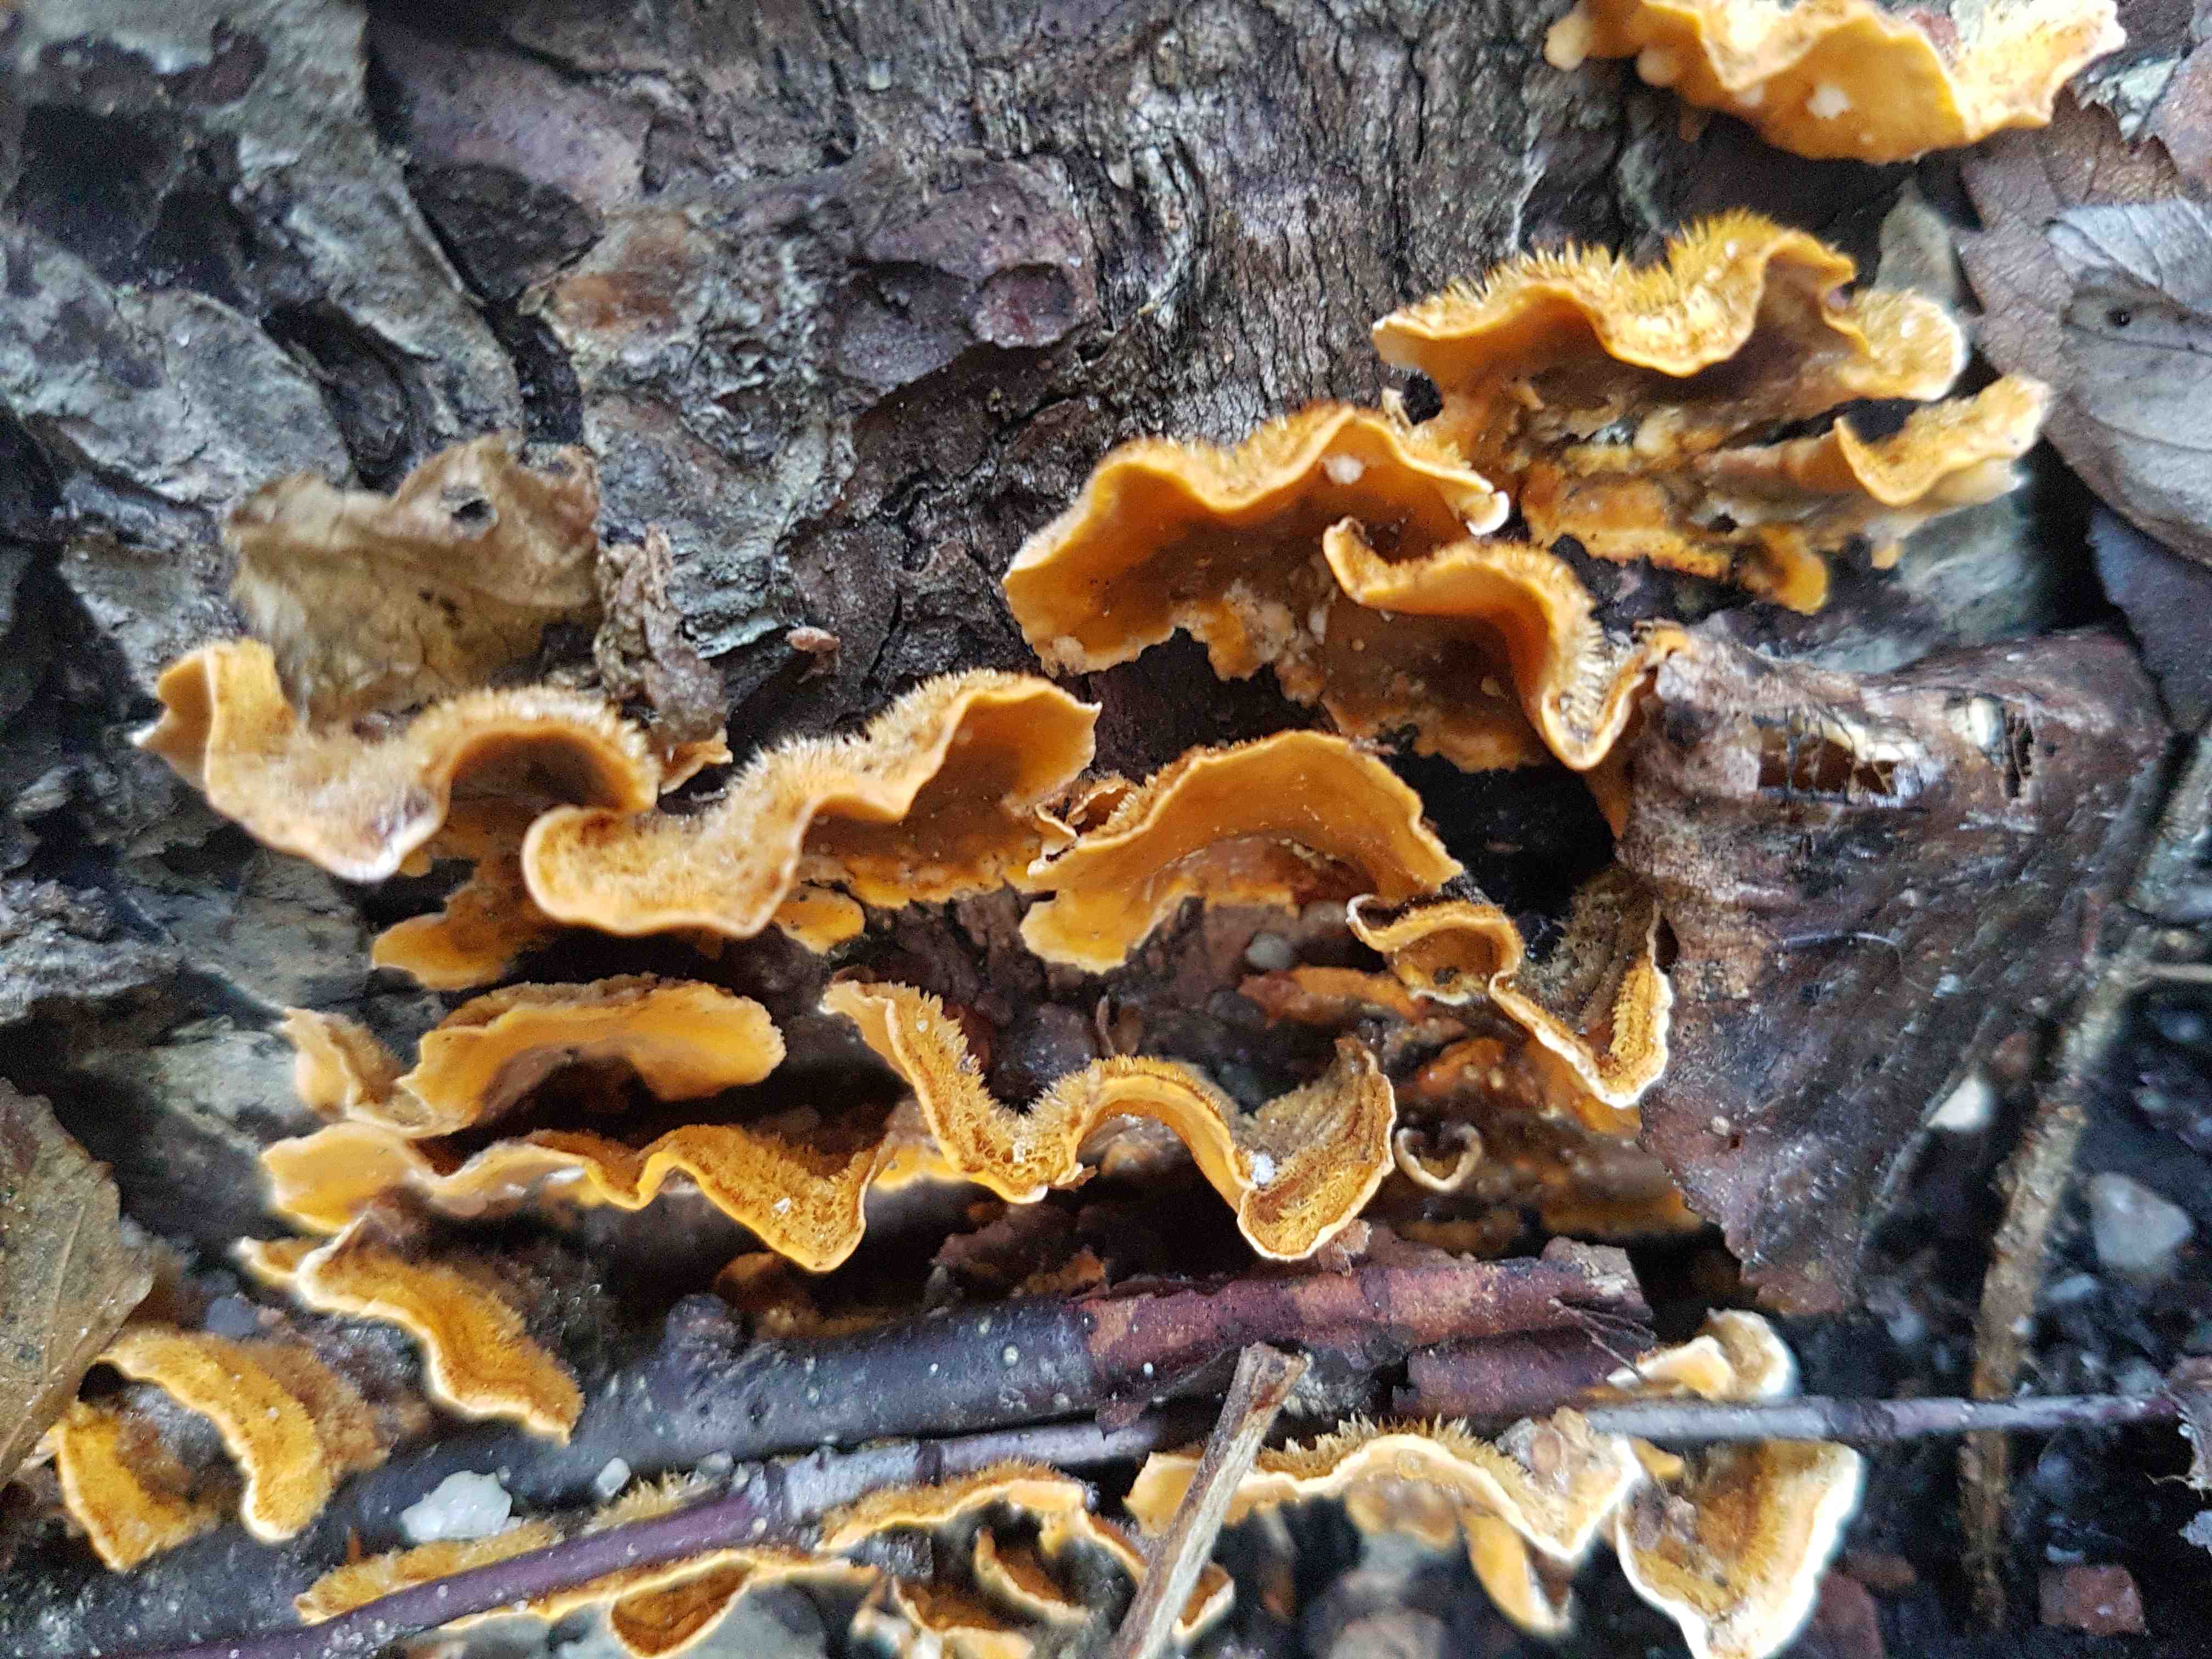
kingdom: Fungi
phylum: Basidiomycota
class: Agaricomycetes
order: Russulales
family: Stereaceae
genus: Stereum
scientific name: Stereum hirsutum
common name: håret lædersvamp
